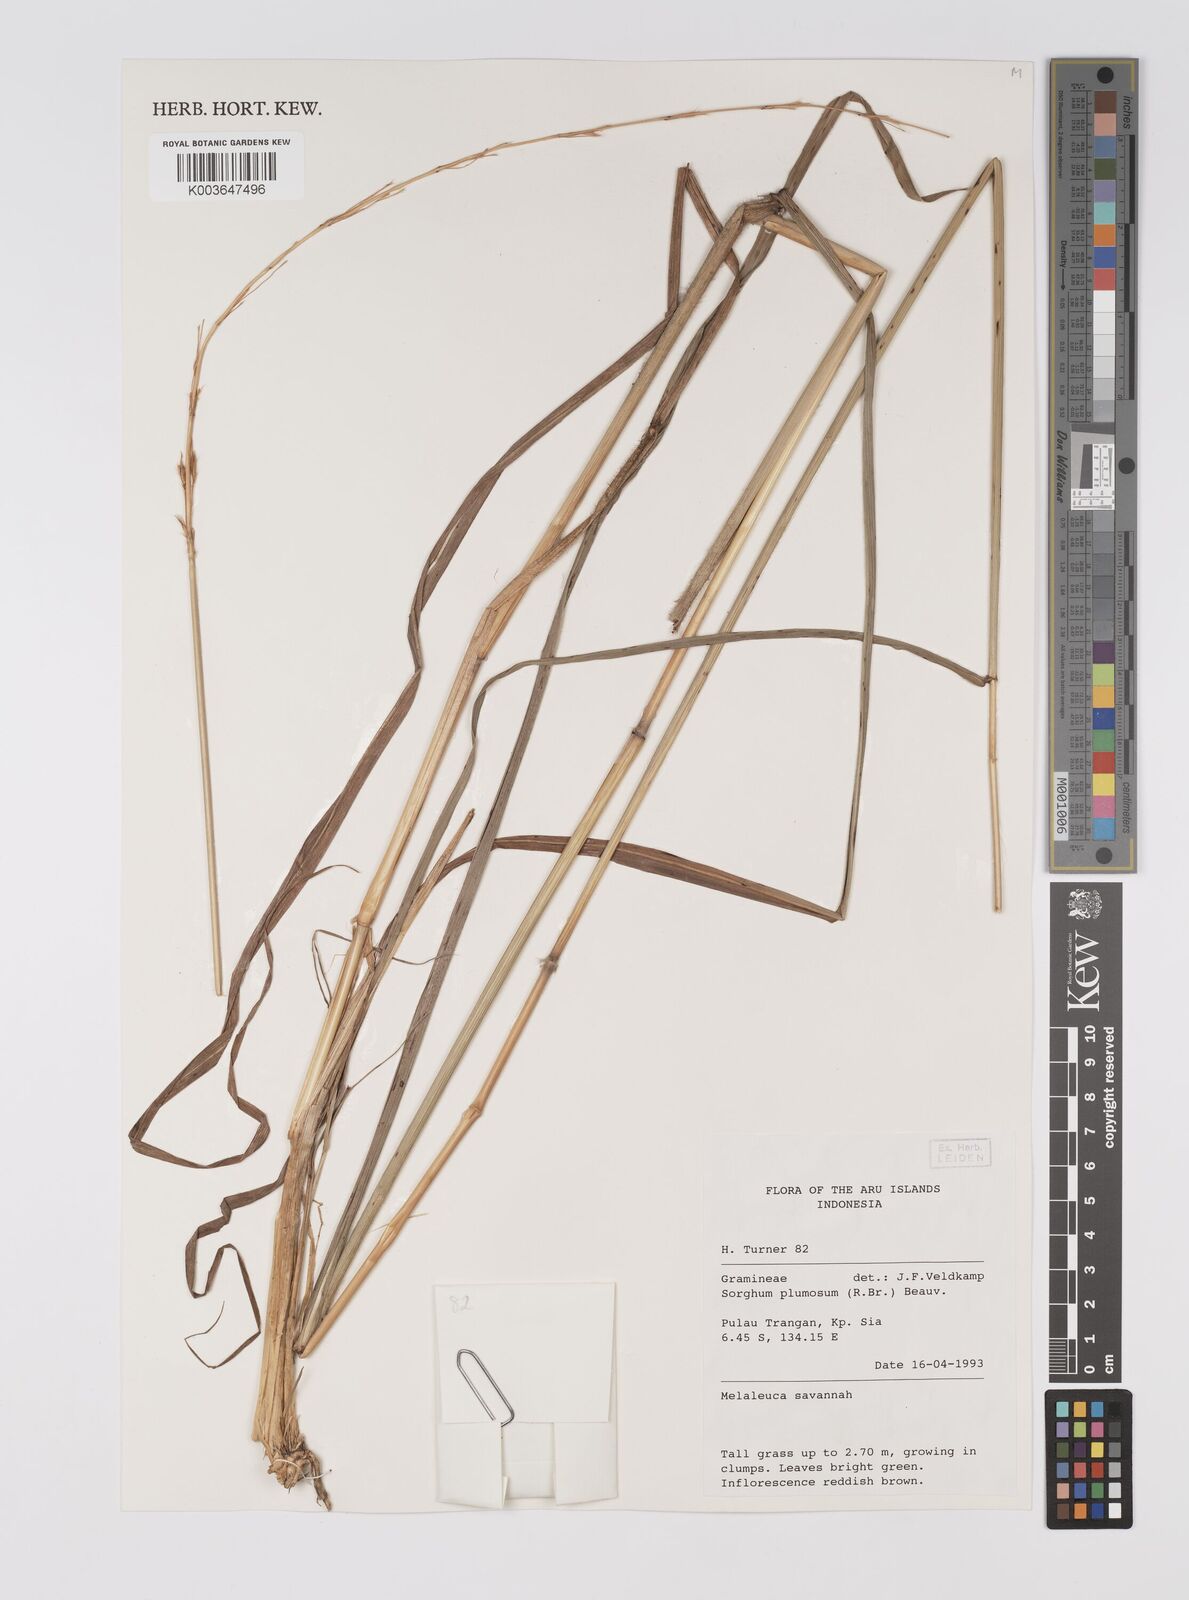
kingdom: Plantae
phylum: Tracheophyta
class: Liliopsida
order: Poales
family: Poaceae
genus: Sarga
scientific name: Sarga plumosa
